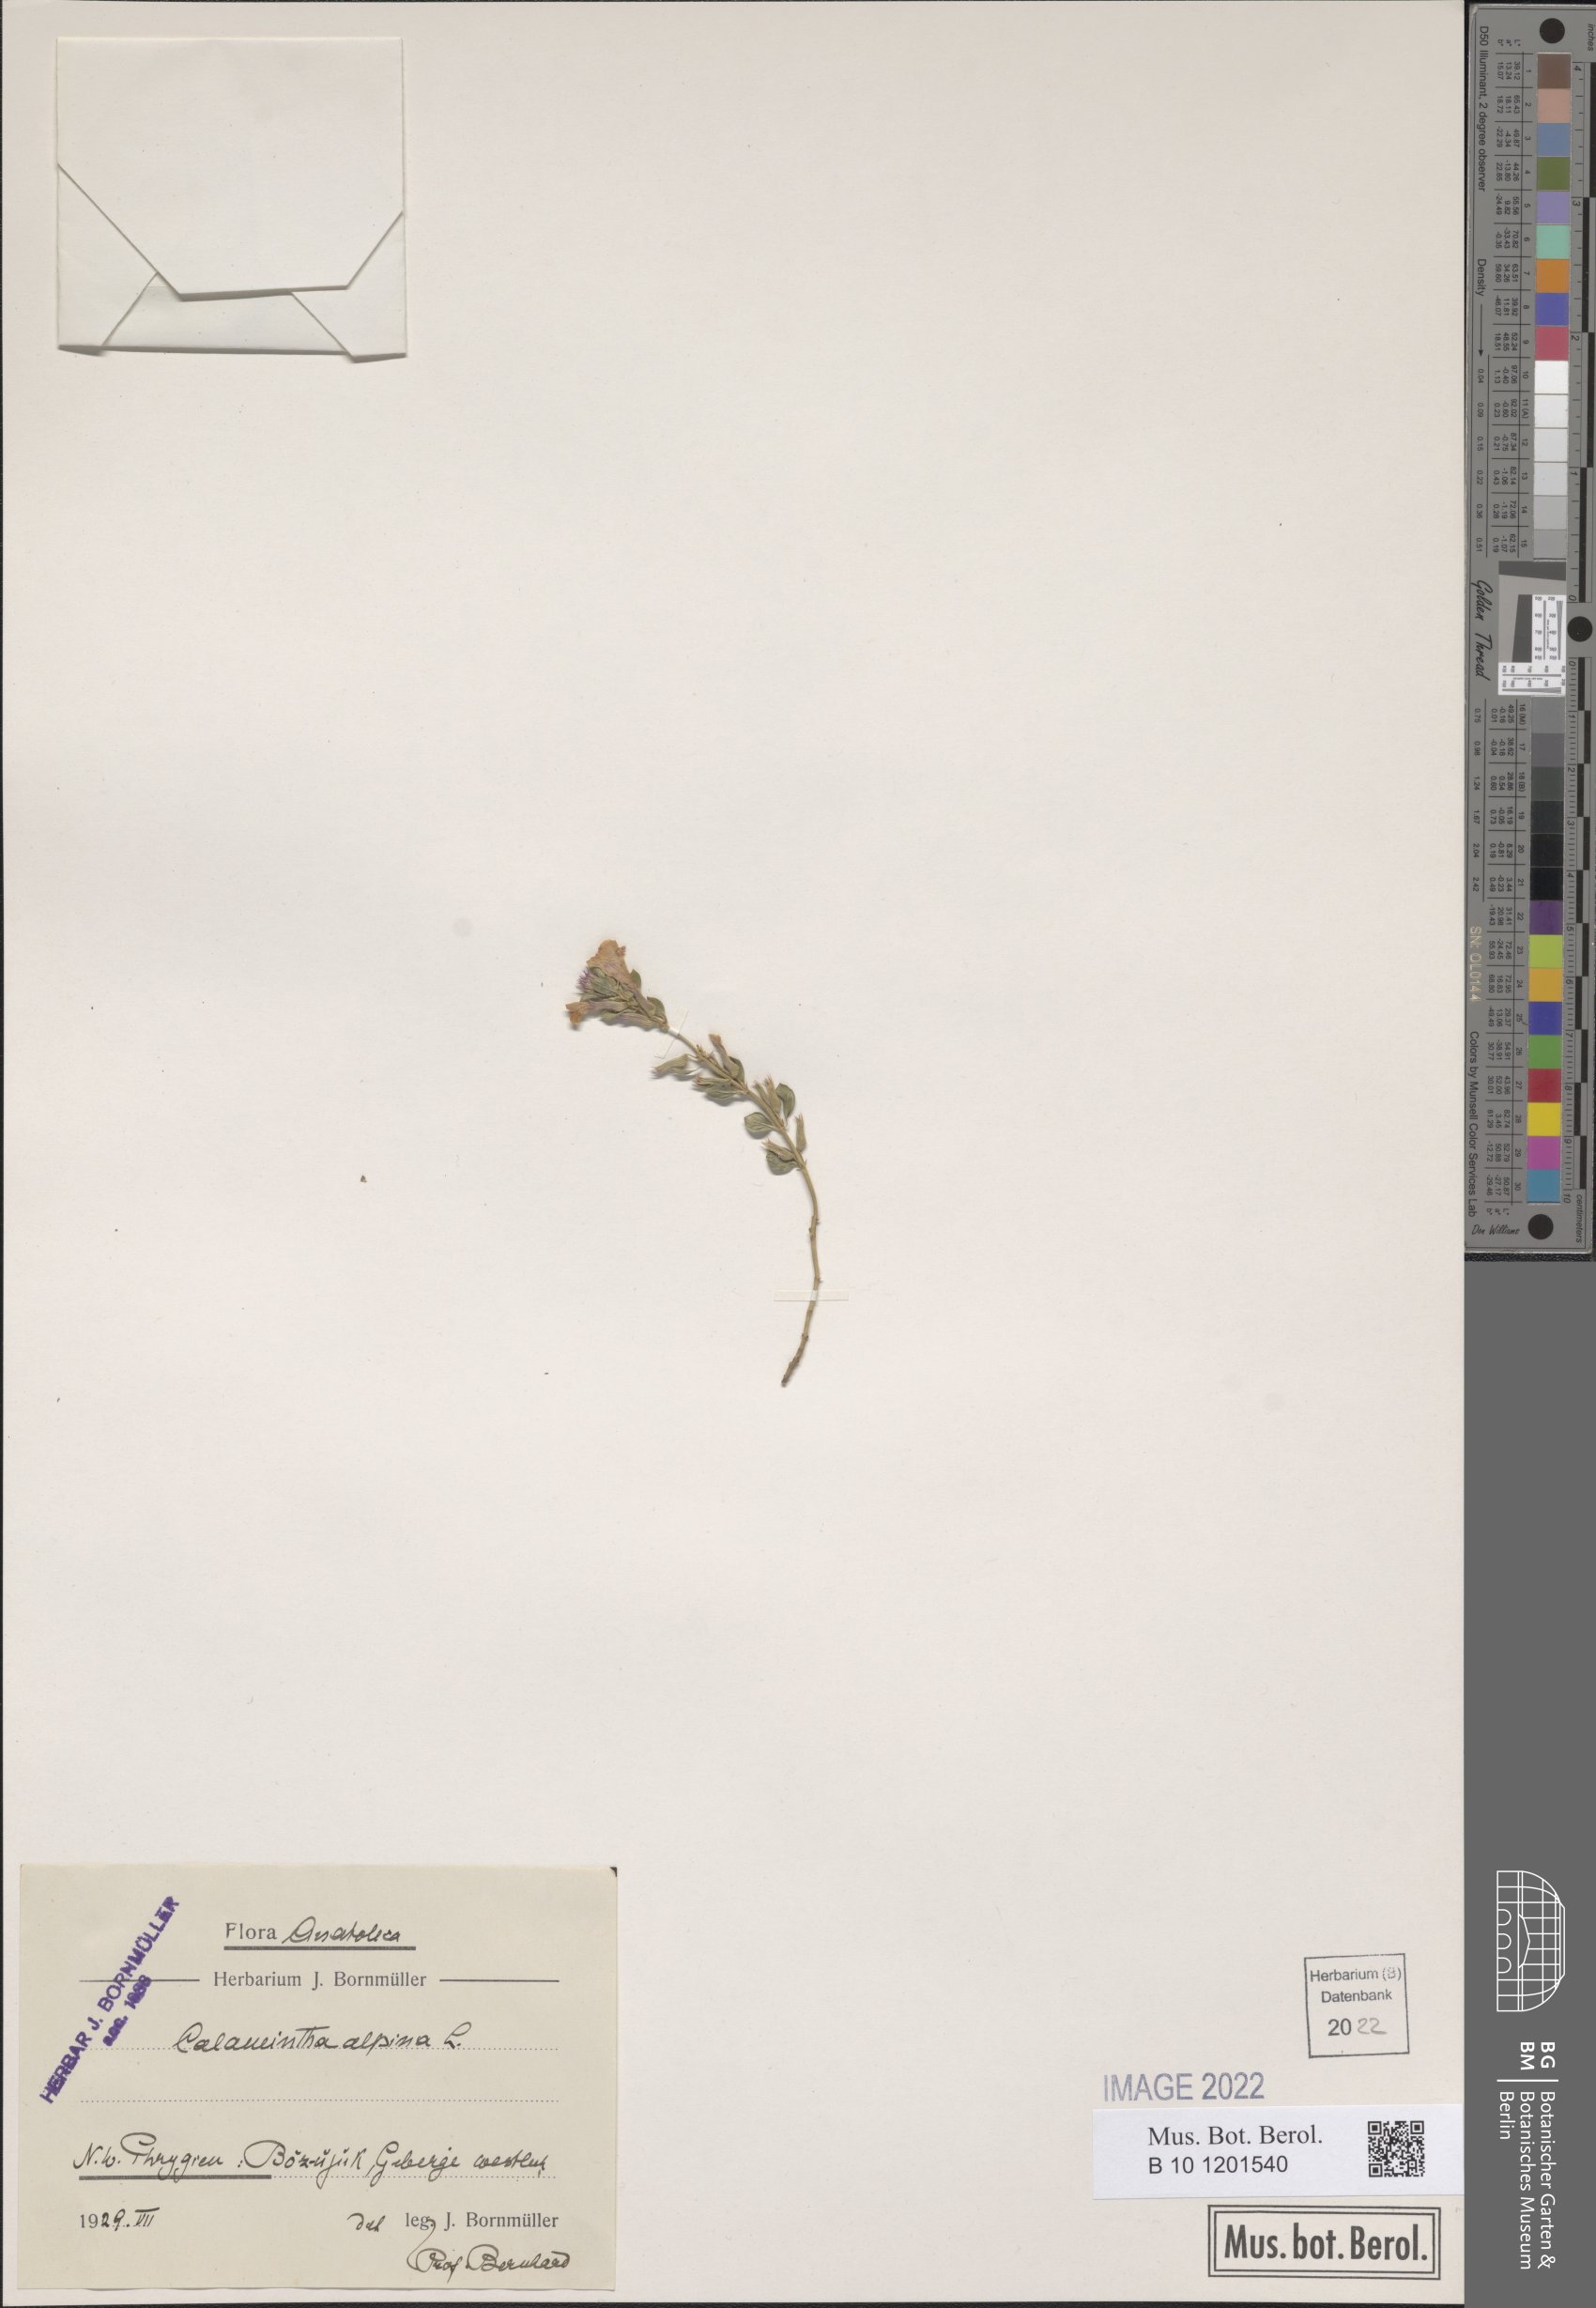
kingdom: Plantae
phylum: Tracheophyta
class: Magnoliopsida
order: Lamiales
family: Lamiaceae
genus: Clinopodium
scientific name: Clinopodium alpinum
